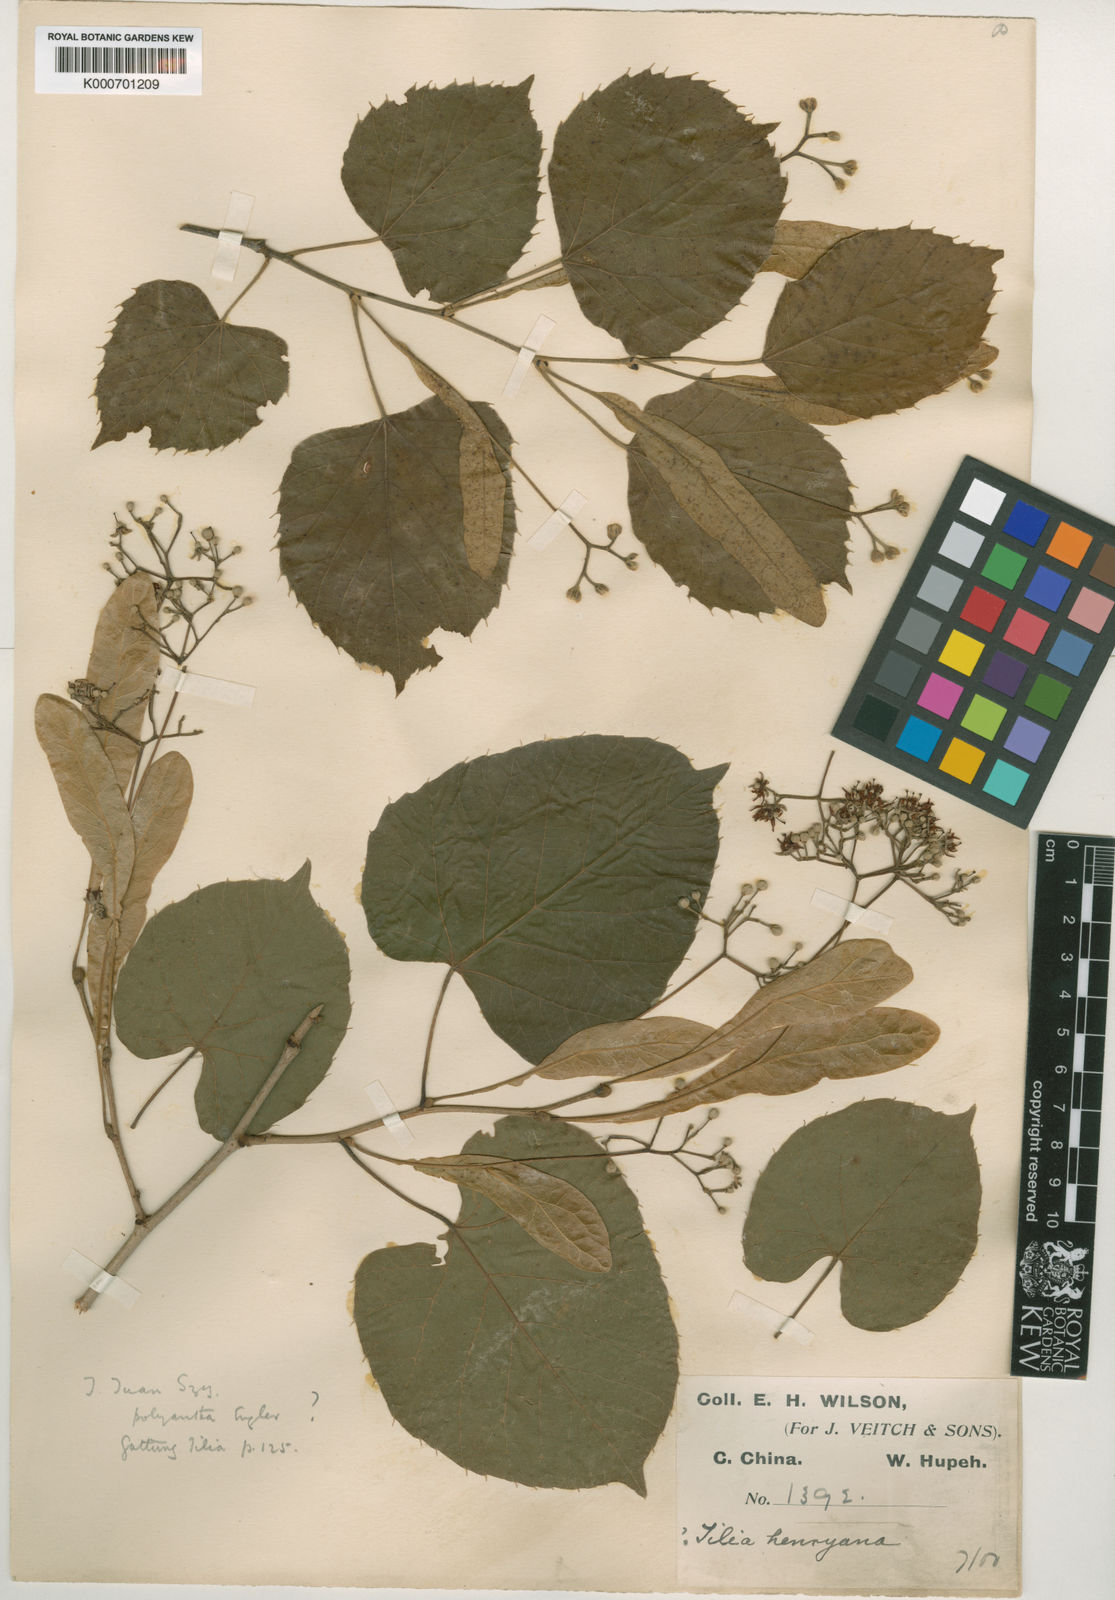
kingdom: Plantae
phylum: Tracheophyta
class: Magnoliopsida
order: Malvales
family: Malvaceae
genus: Tilia
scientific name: Tilia henryana
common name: Henry's lime
